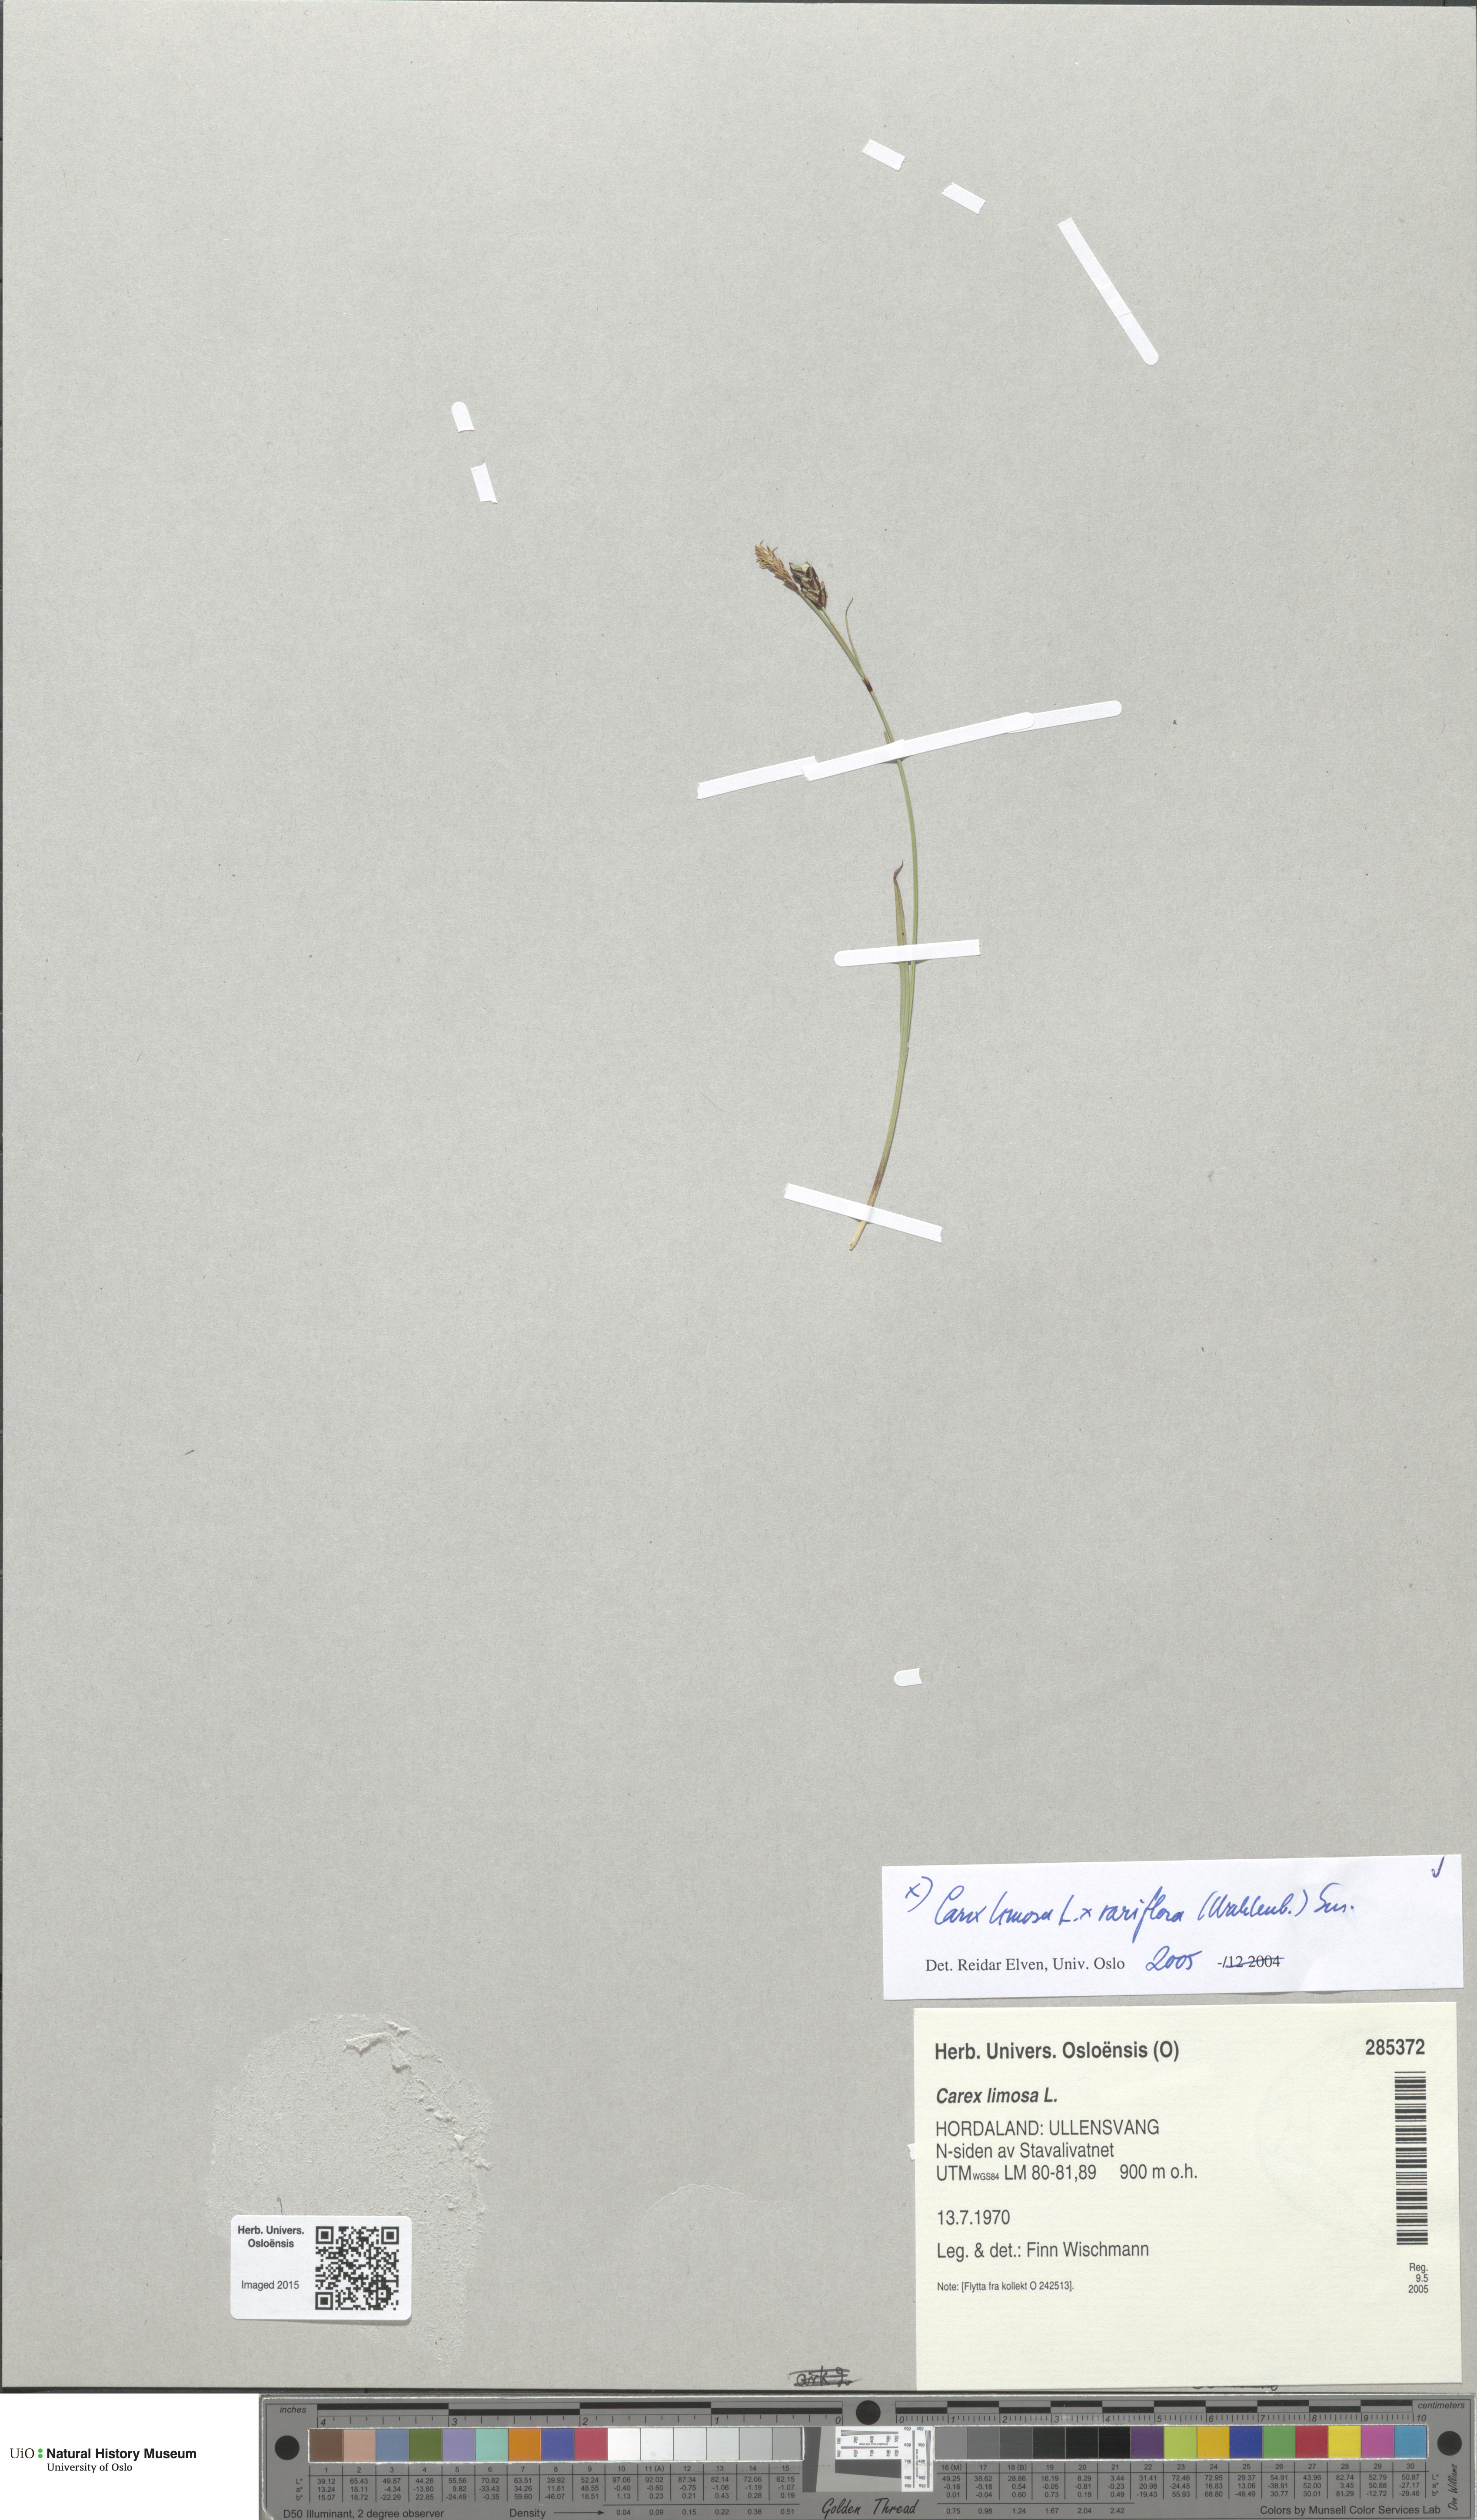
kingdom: Plantae
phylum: Tracheophyta
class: Liliopsida
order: Poales
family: Cyperaceae
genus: Carex
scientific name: Carex
